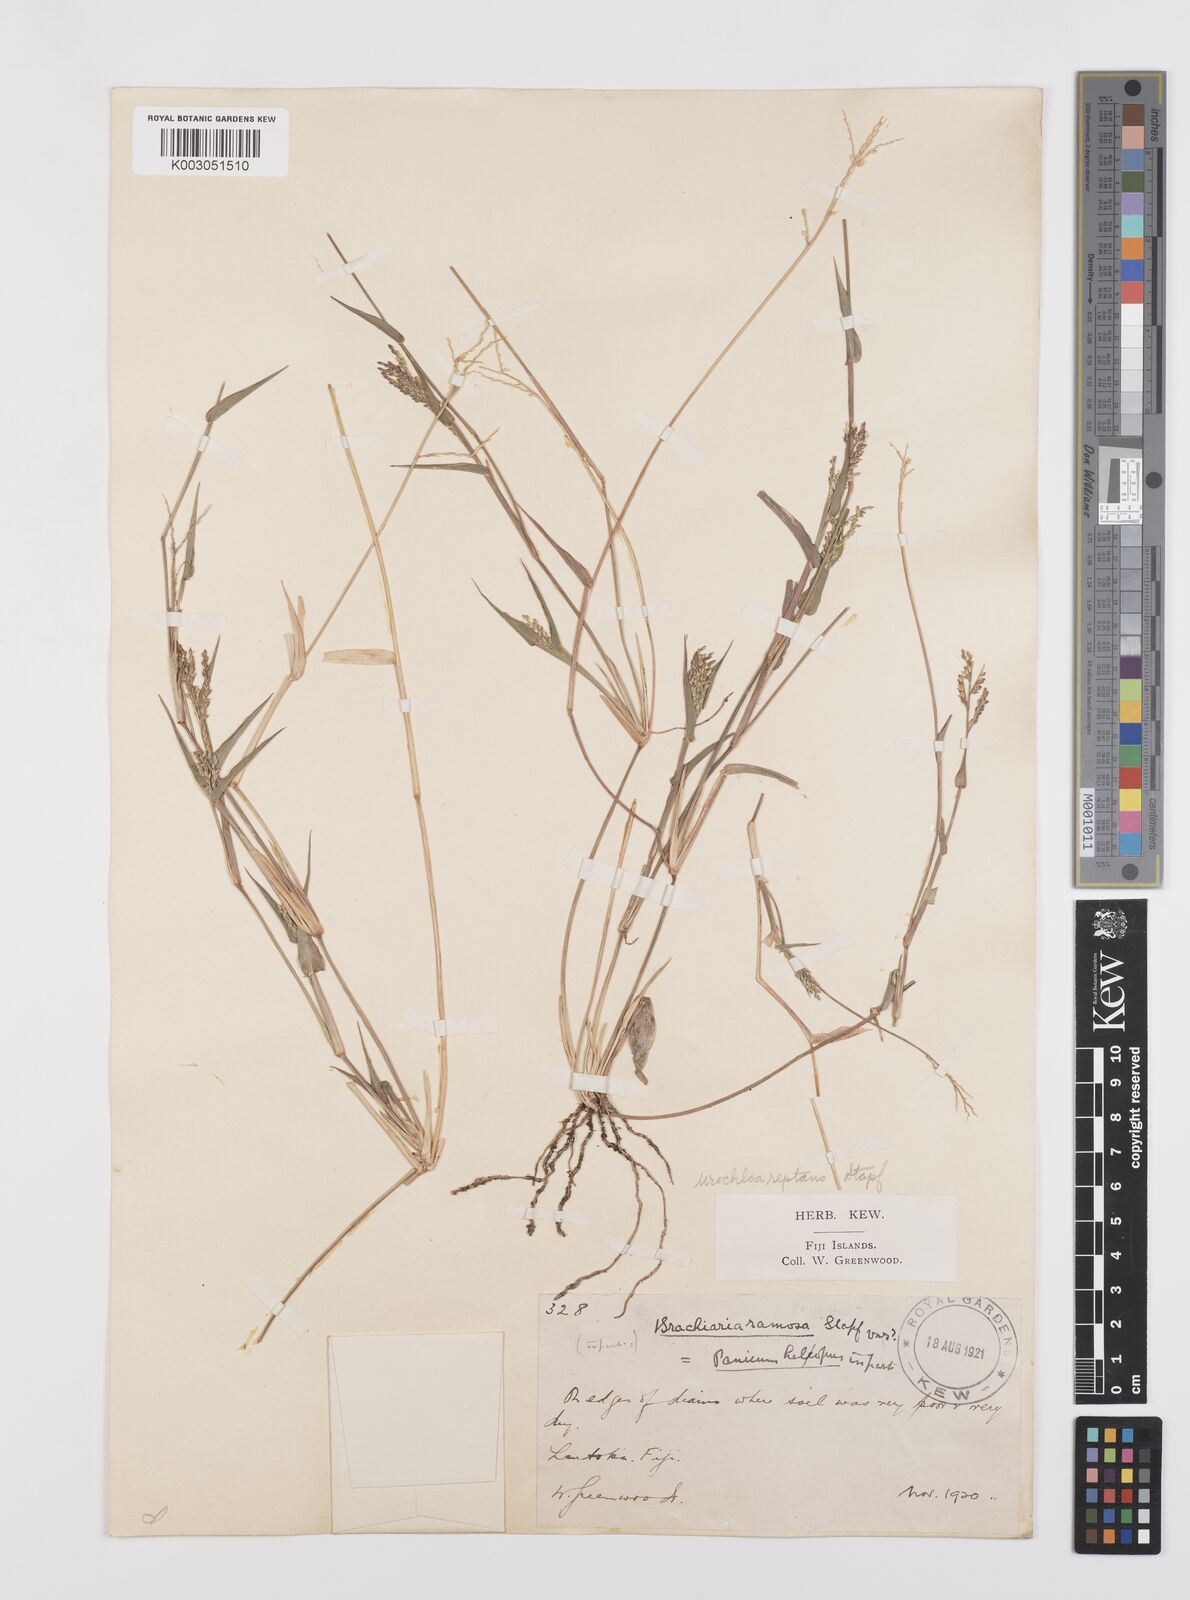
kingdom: Plantae
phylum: Tracheophyta
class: Liliopsida
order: Poales
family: Poaceae
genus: Urochloa
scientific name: Urochloa reptans
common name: Sprawling signalgrass
